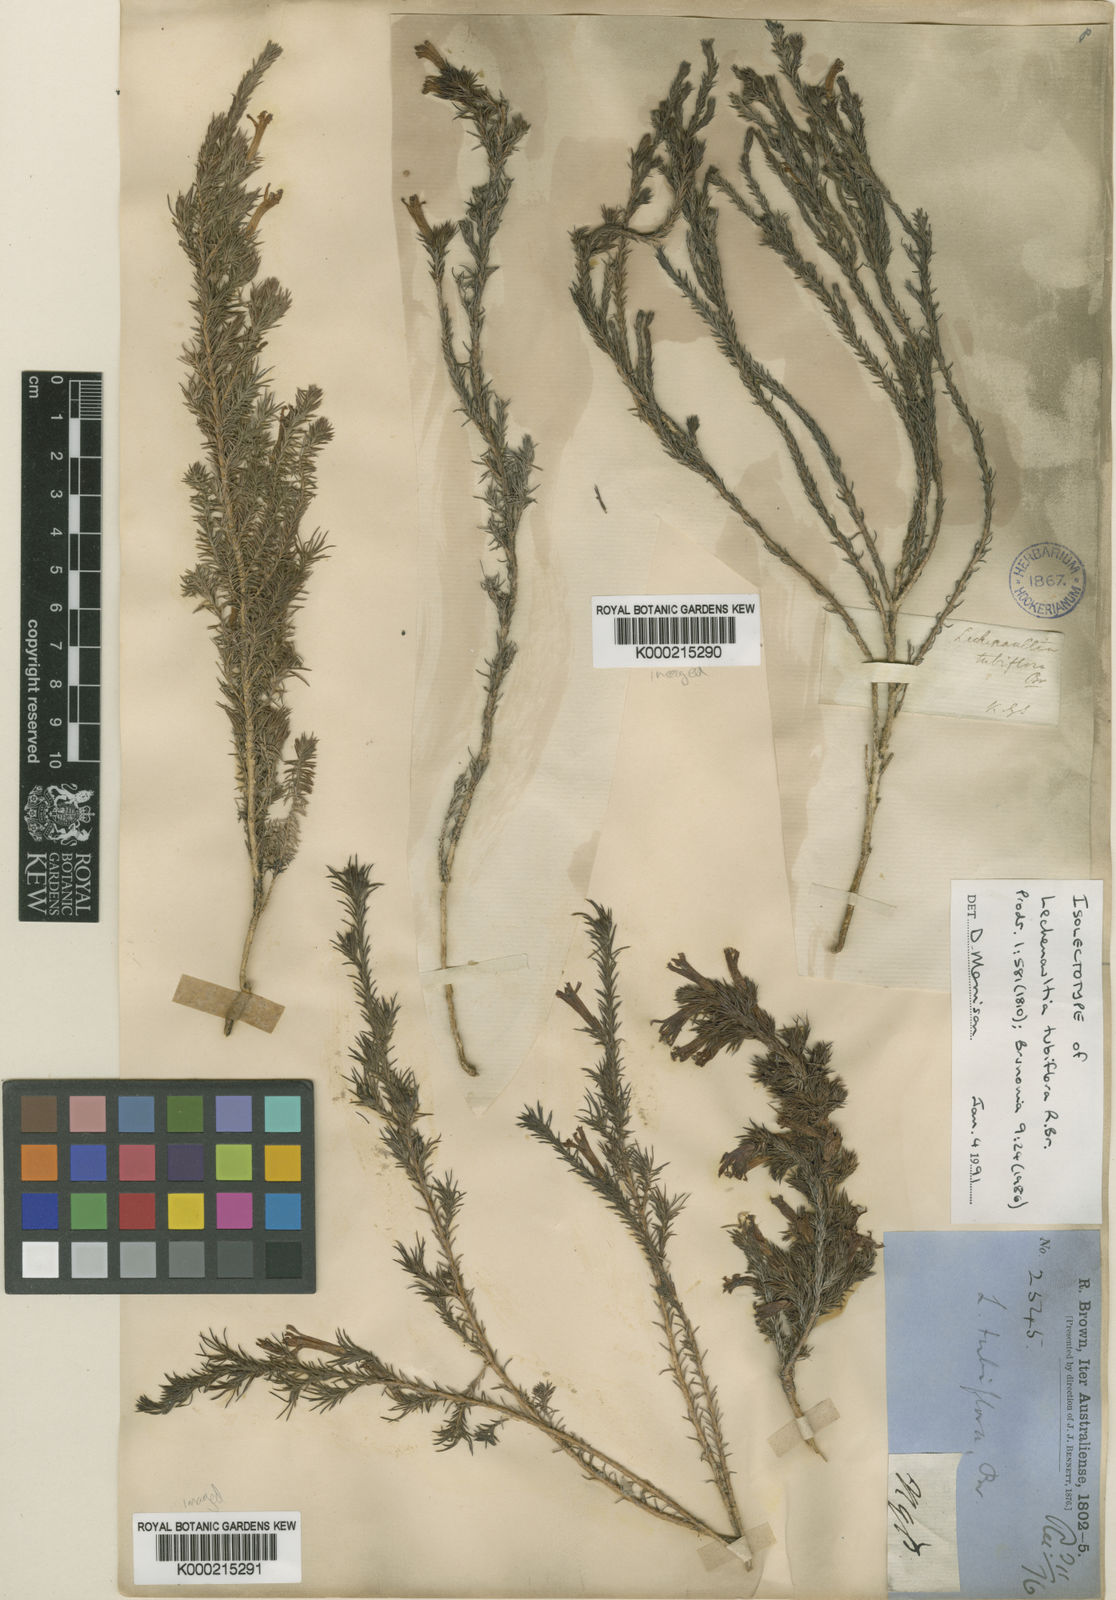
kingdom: Plantae
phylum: Tracheophyta
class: Magnoliopsida
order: Asterales
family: Goodeniaceae
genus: Leschenaultia
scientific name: Leschenaultia tubiflora
